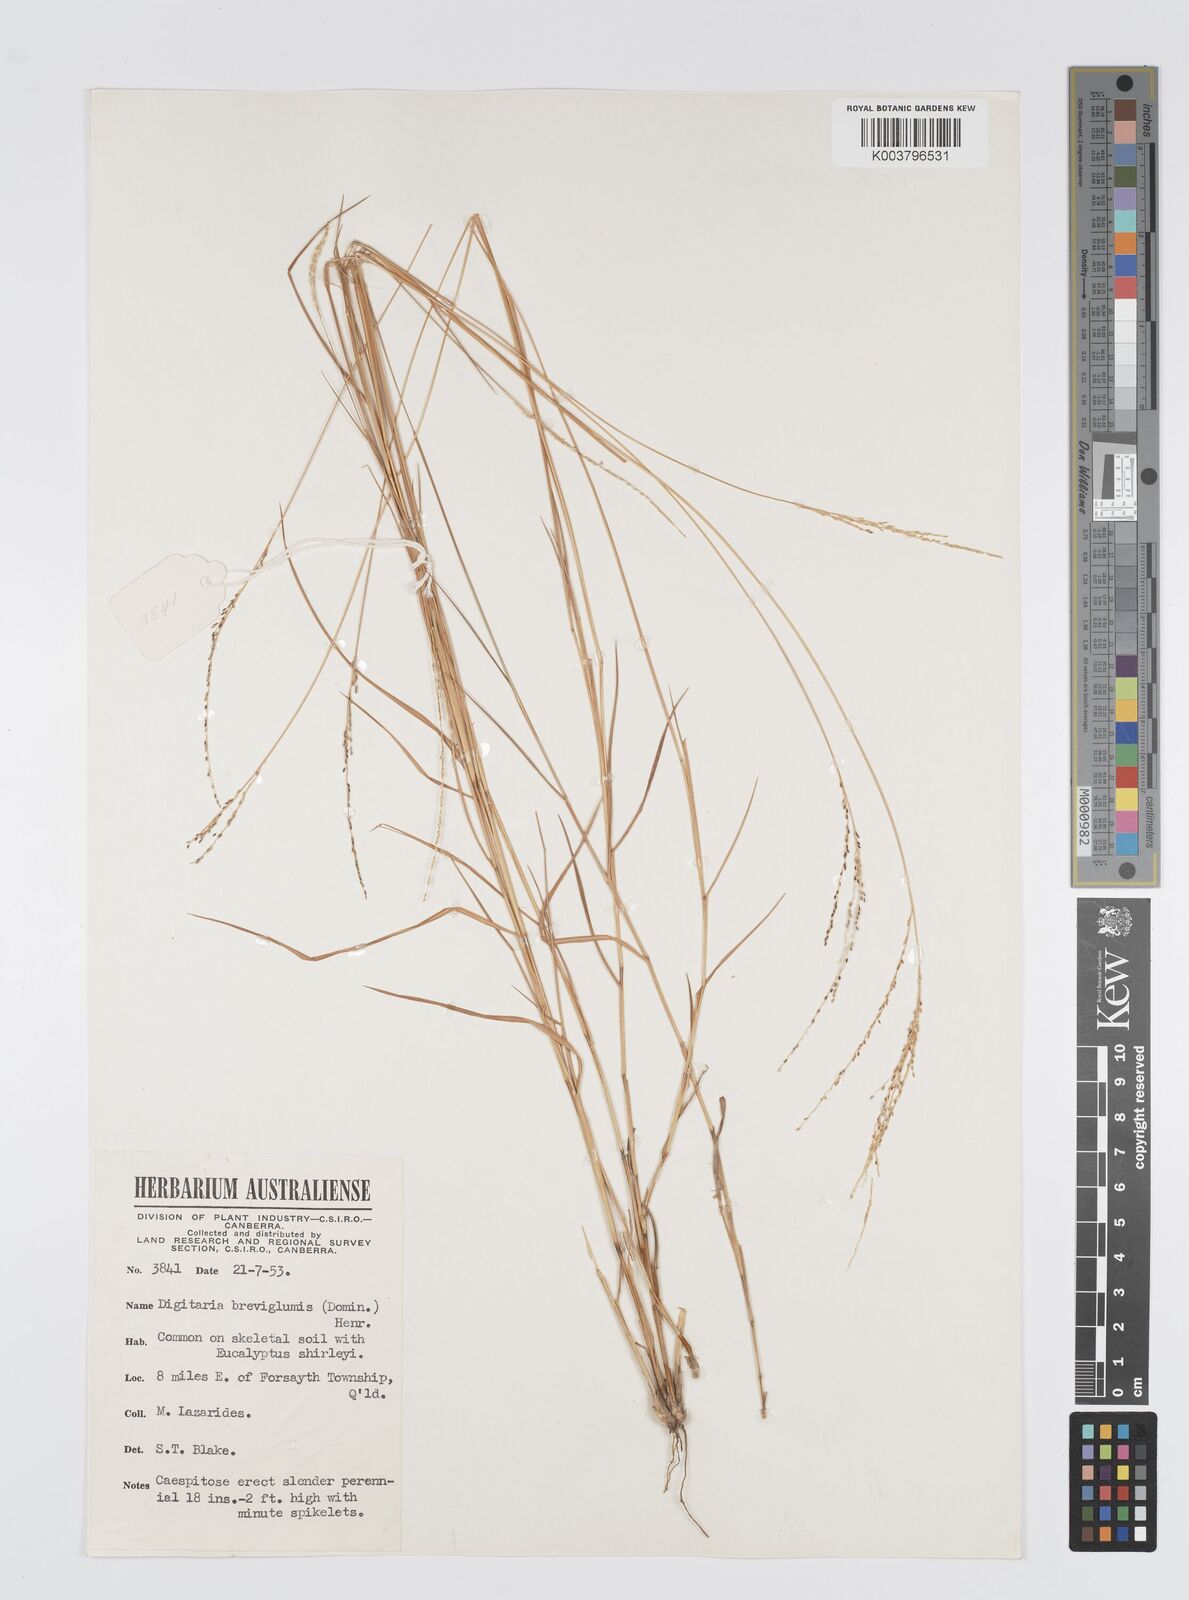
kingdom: Plantae
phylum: Tracheophyta
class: Liliopsida
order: Poales
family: Poaceae
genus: Digitaria
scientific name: Digitaria breviglumis
